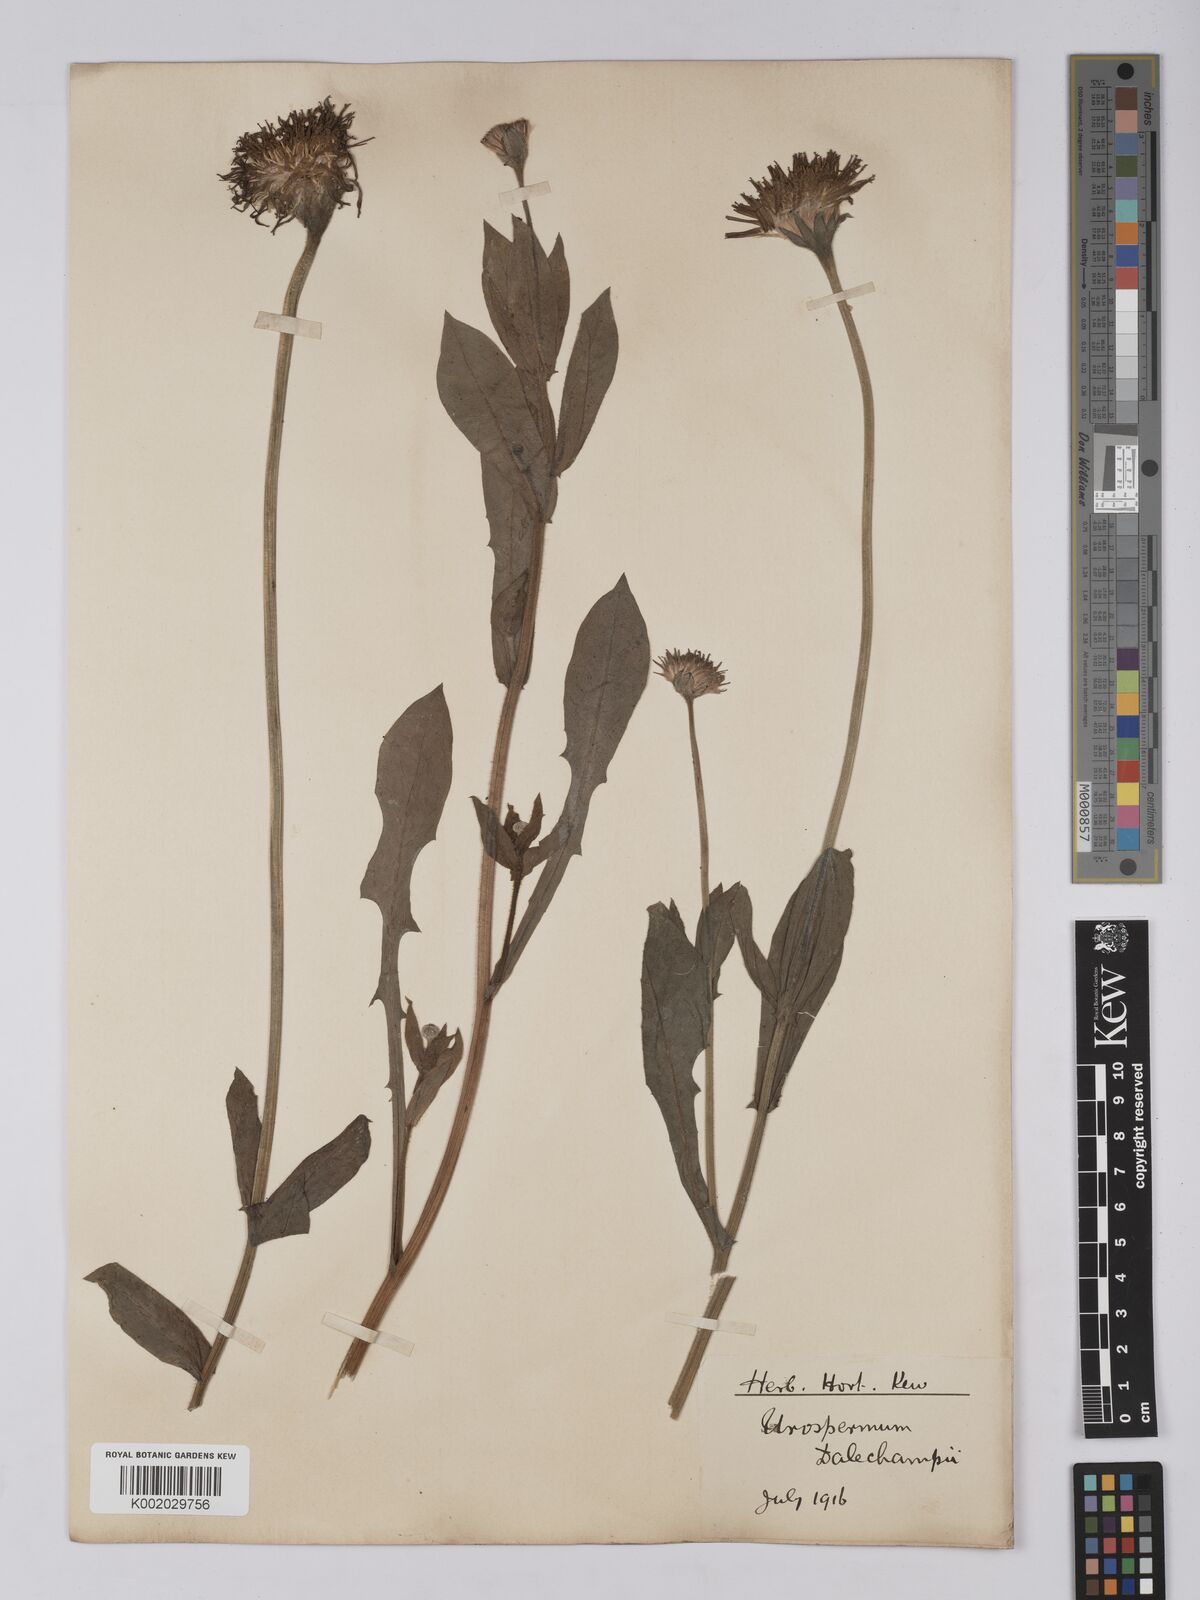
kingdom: Plantae
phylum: Tracheophyta
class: Magnoliopsida
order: Asterales
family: Asteraceae
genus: Urospermum
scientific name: Urospermum dalechampii
